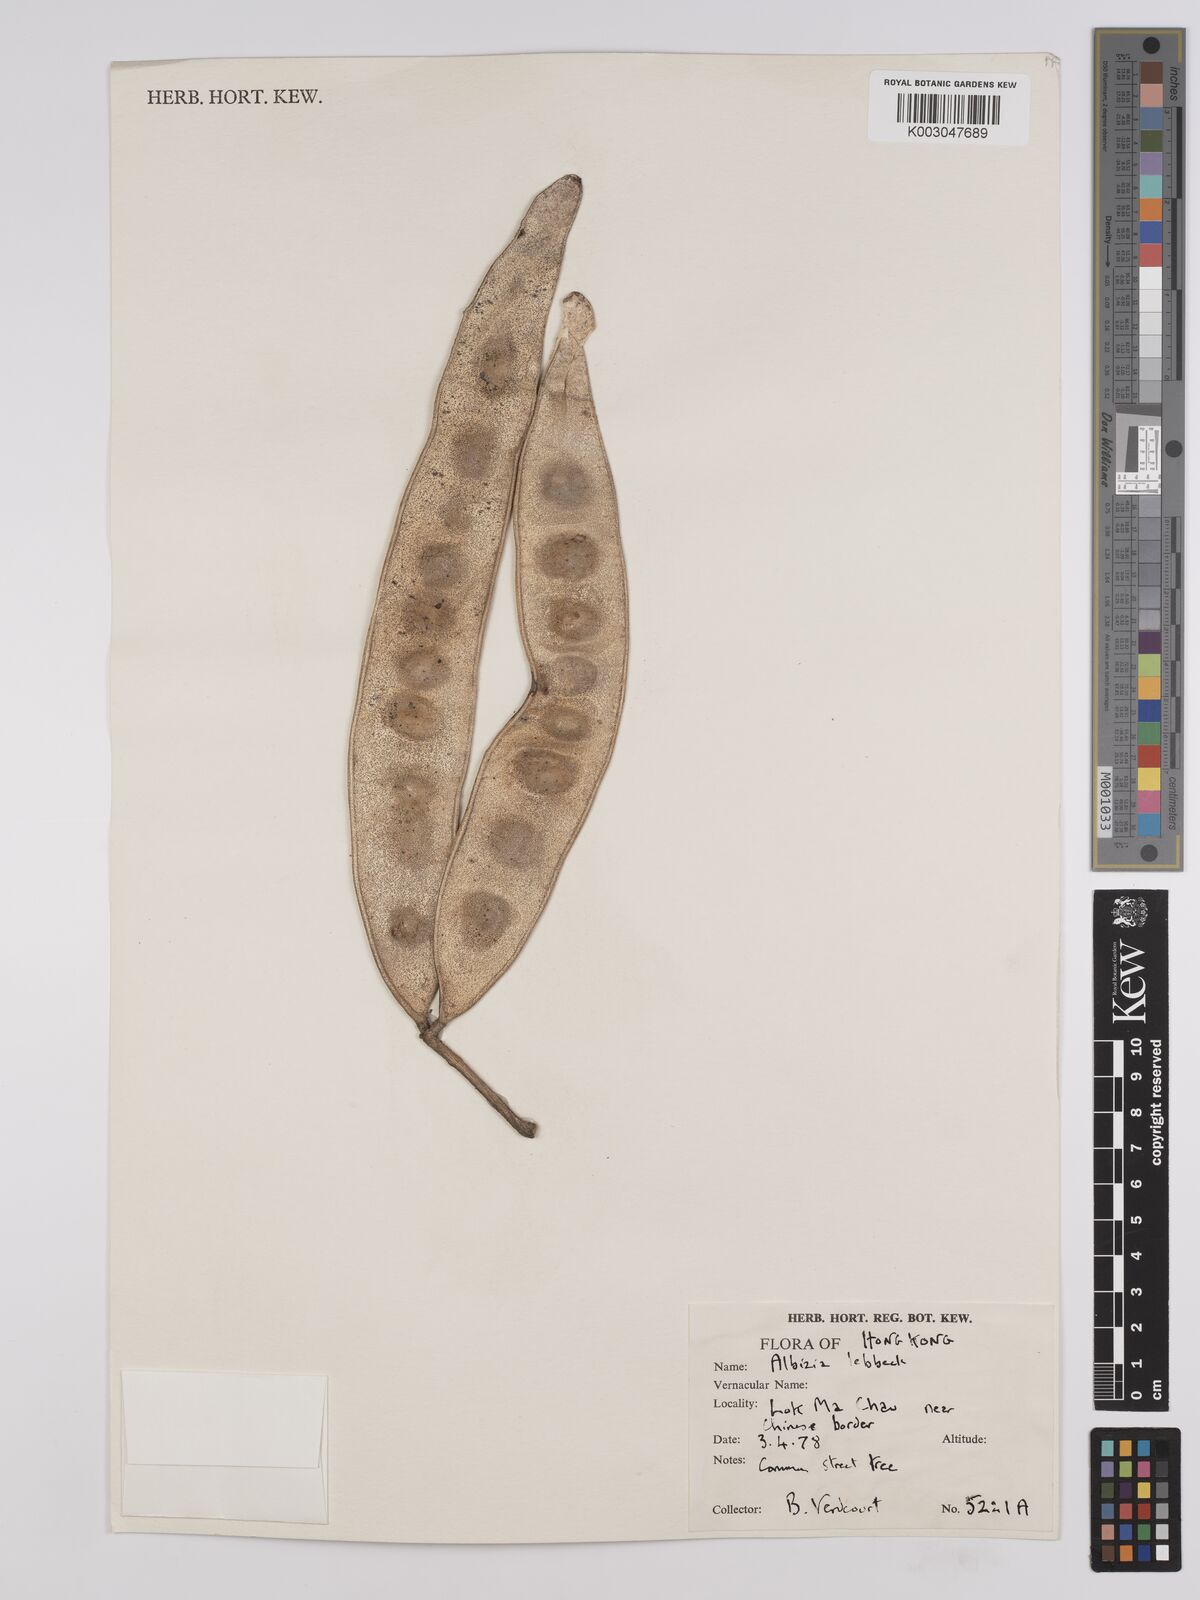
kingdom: Plantae
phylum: Tracheophyta
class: Magnoliopsida
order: Fabales
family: Fabaceae
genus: Albizia
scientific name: Albizia lebbeck
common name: Woman's tongue
